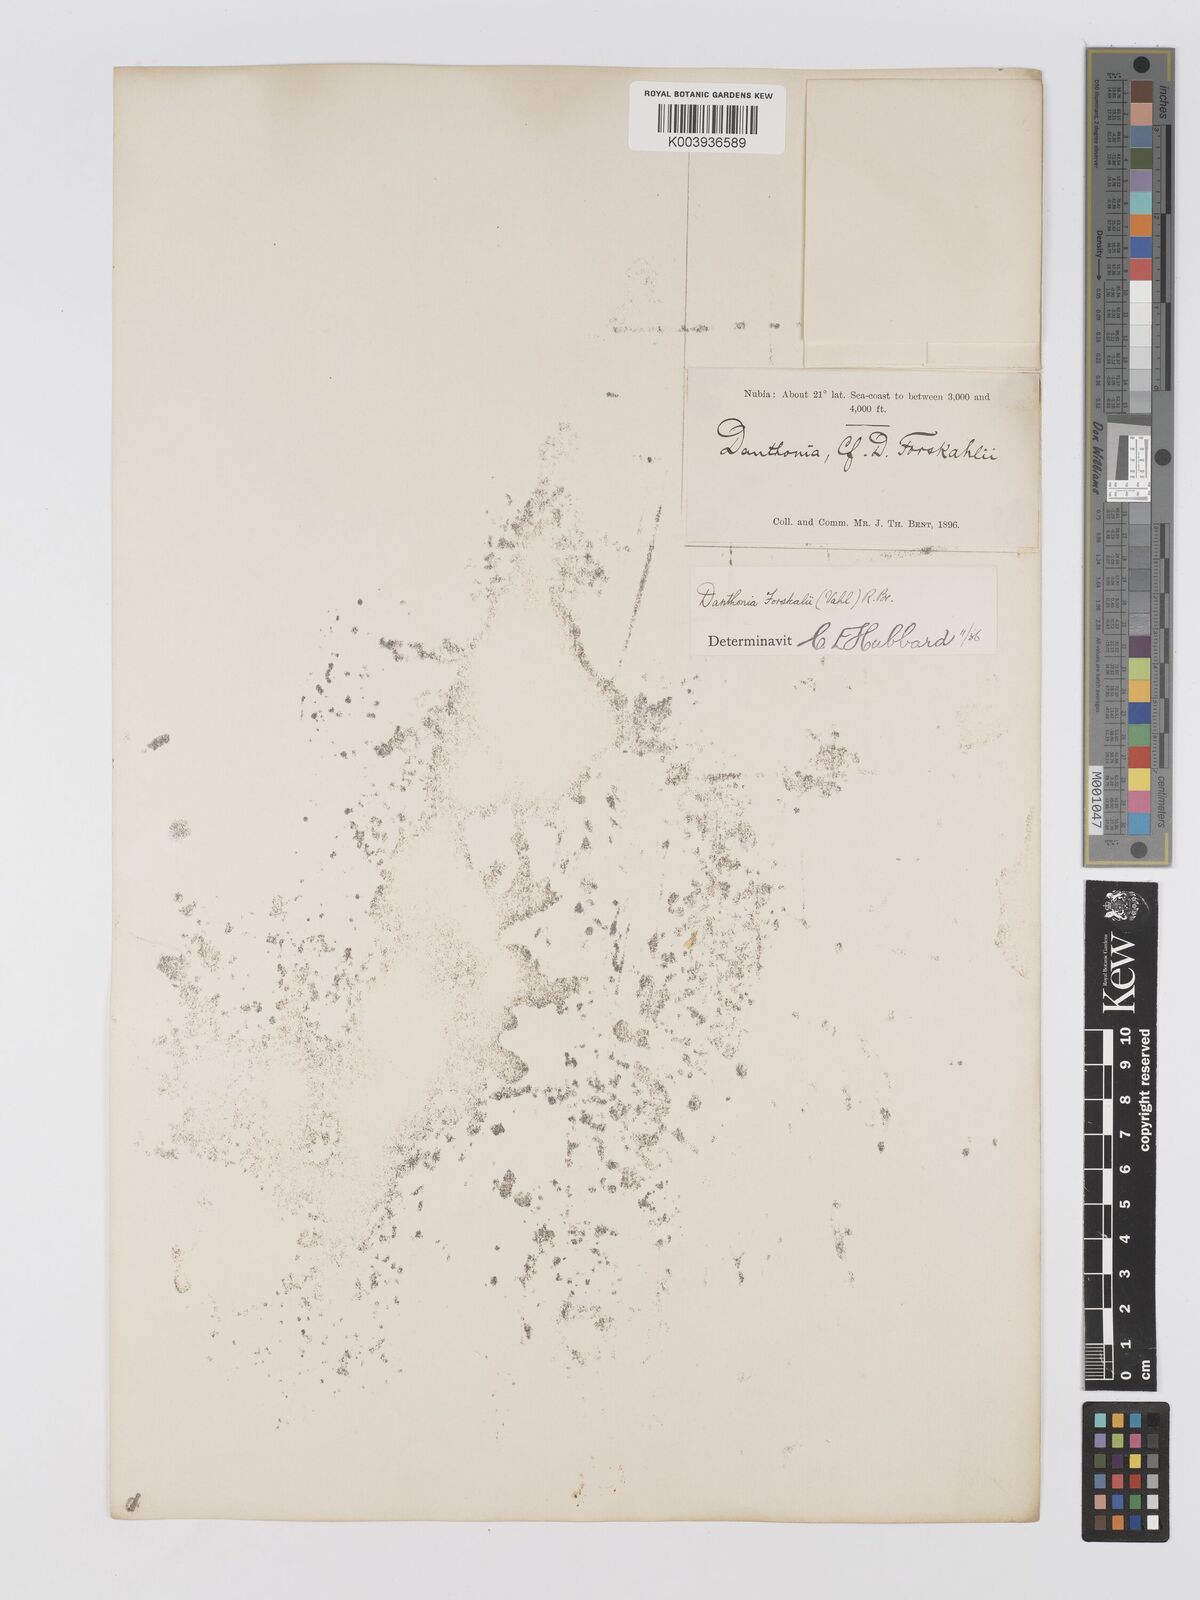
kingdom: Plantae
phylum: Tracheophyta
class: Liliopsida
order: Poales
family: Poaceae
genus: Centropodia
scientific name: Centropodia forskaolii
